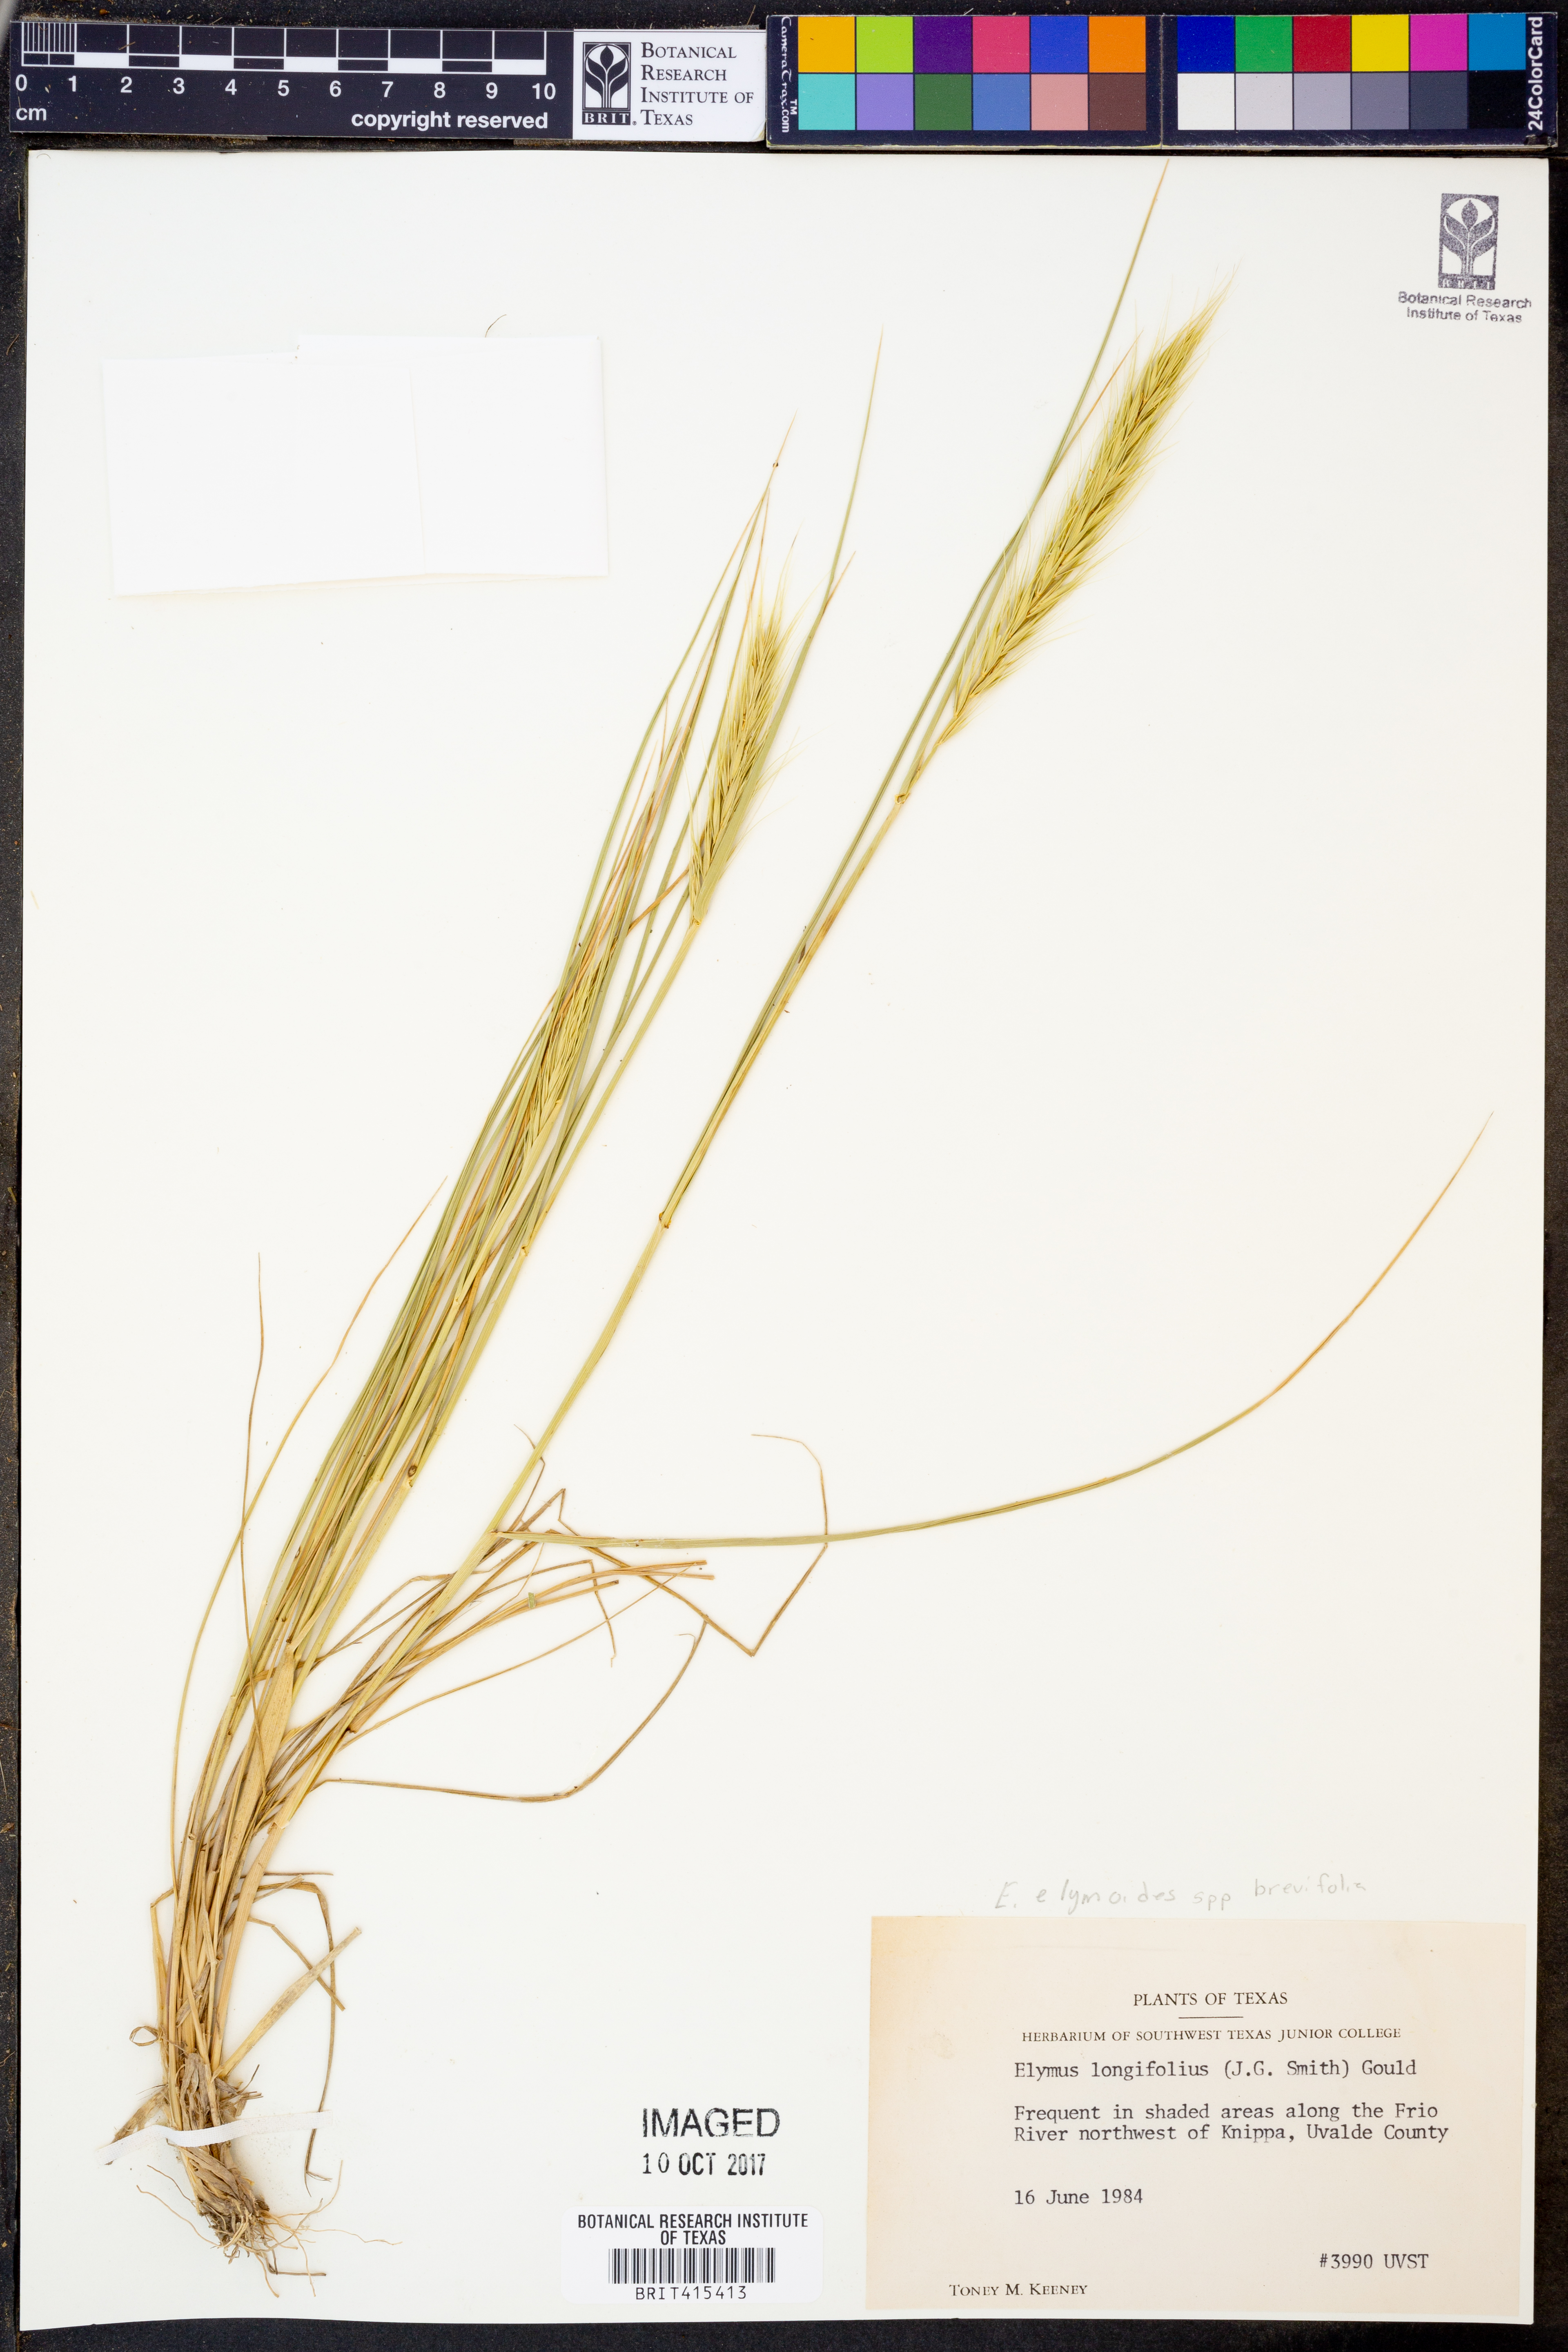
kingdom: Plantae
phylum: Tracheophyta
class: Liliopsida
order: Poales
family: Poaceae
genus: Elymus
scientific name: Elymus longifolius
